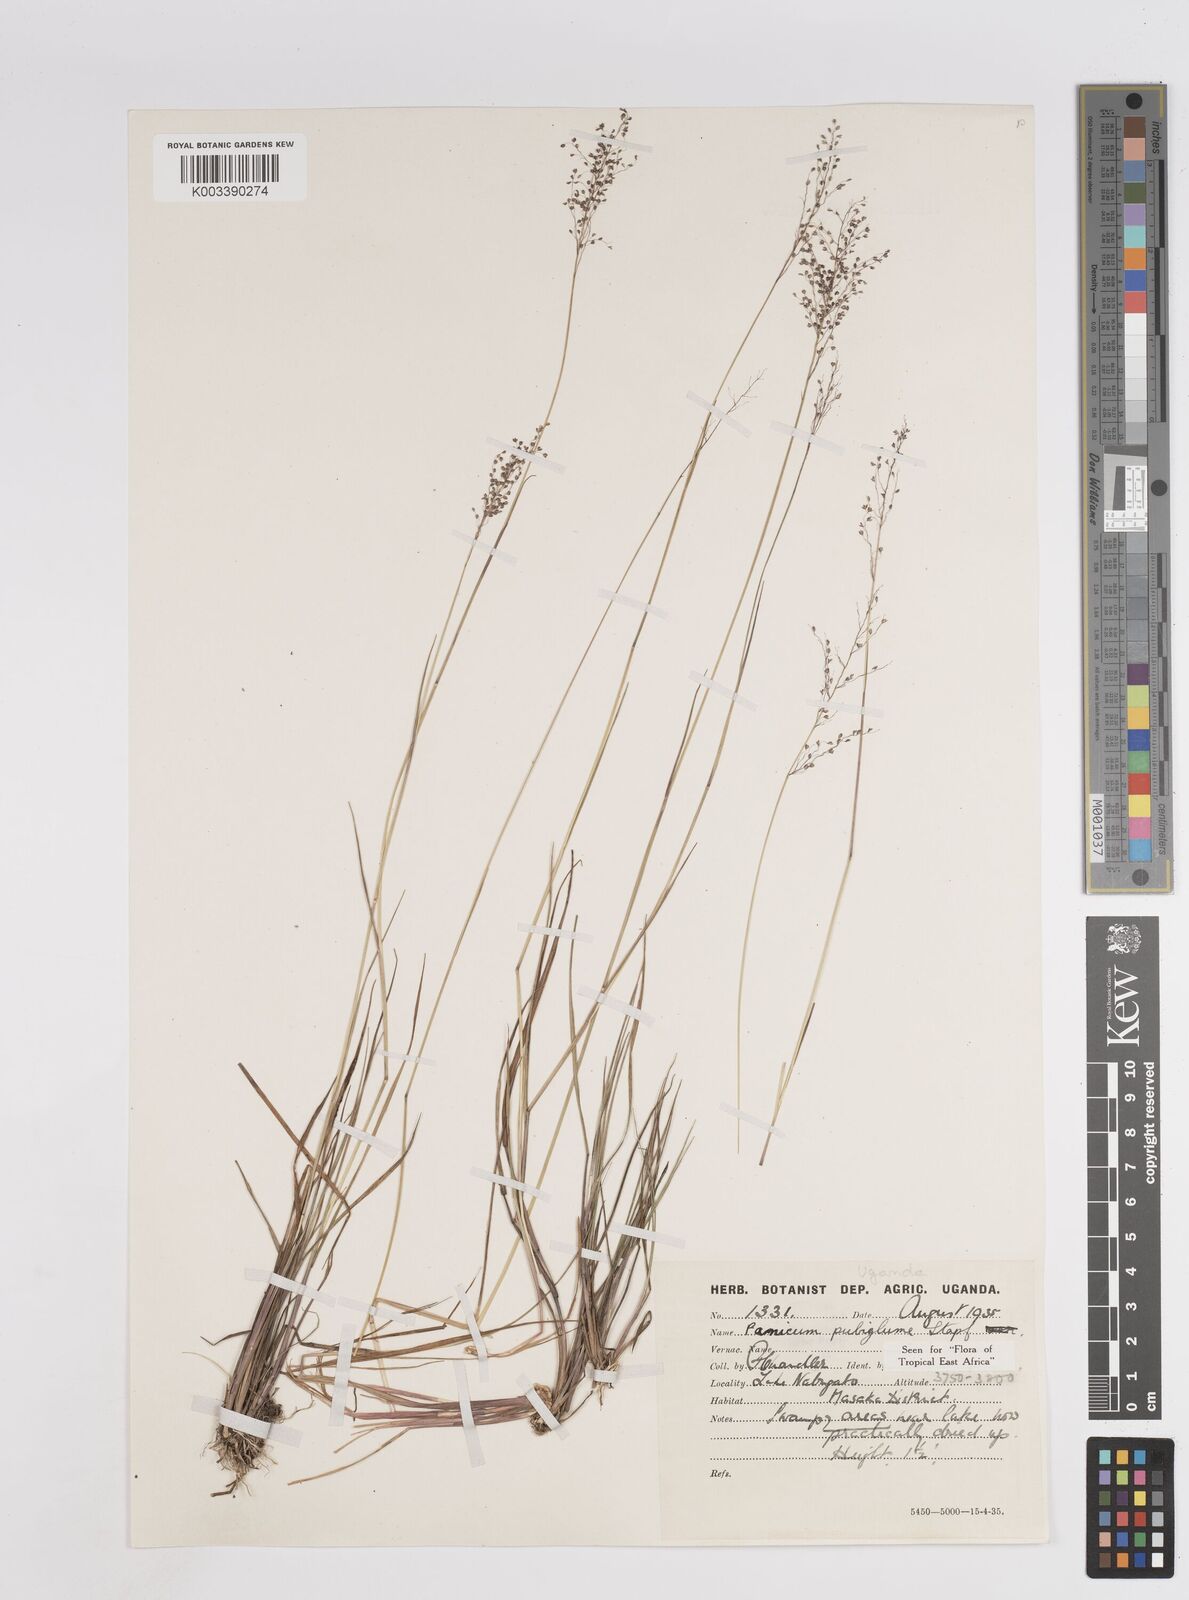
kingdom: Plantae
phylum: Tracheophyta
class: Liliopsida
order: Poales
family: Poaceae
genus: Trichanthecium
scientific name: Trichanthecium brazzavillense
